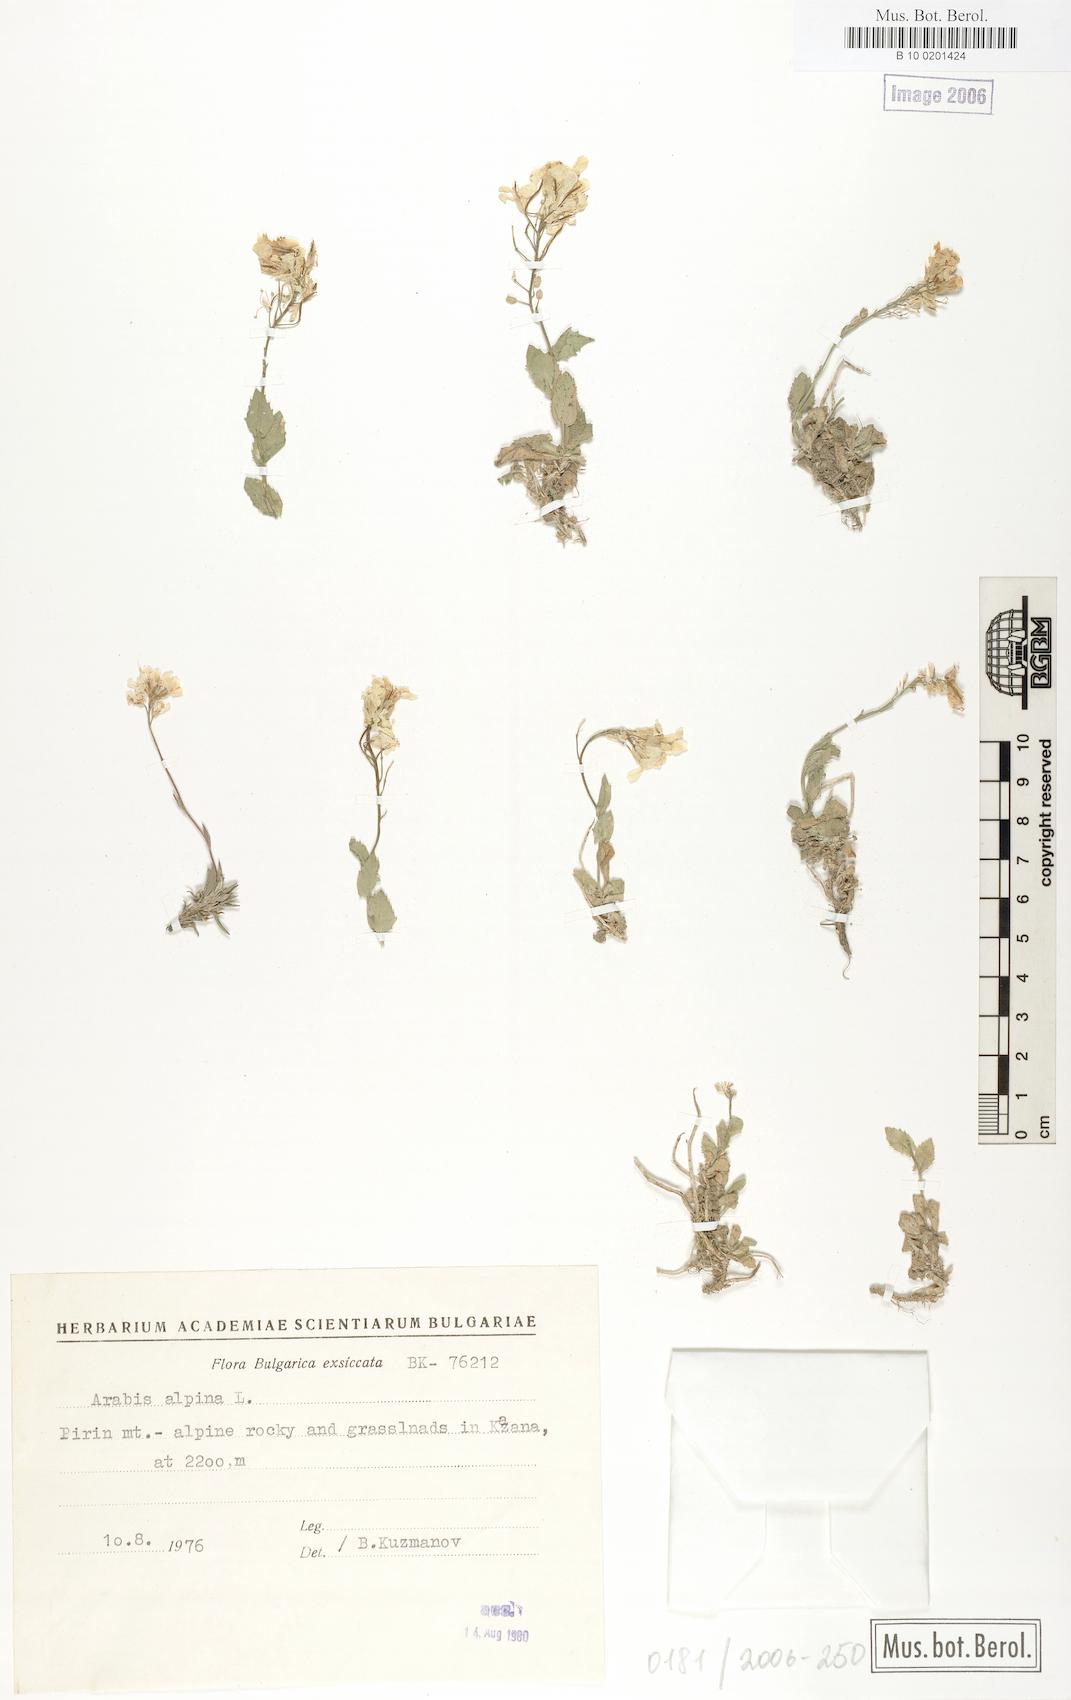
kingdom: Plantae
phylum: Tracheophyta
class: Magnoliopsida
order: Brassicales
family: Brassicaceae
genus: Arabis
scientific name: Arabis alpina
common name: Alpine rock-cress
